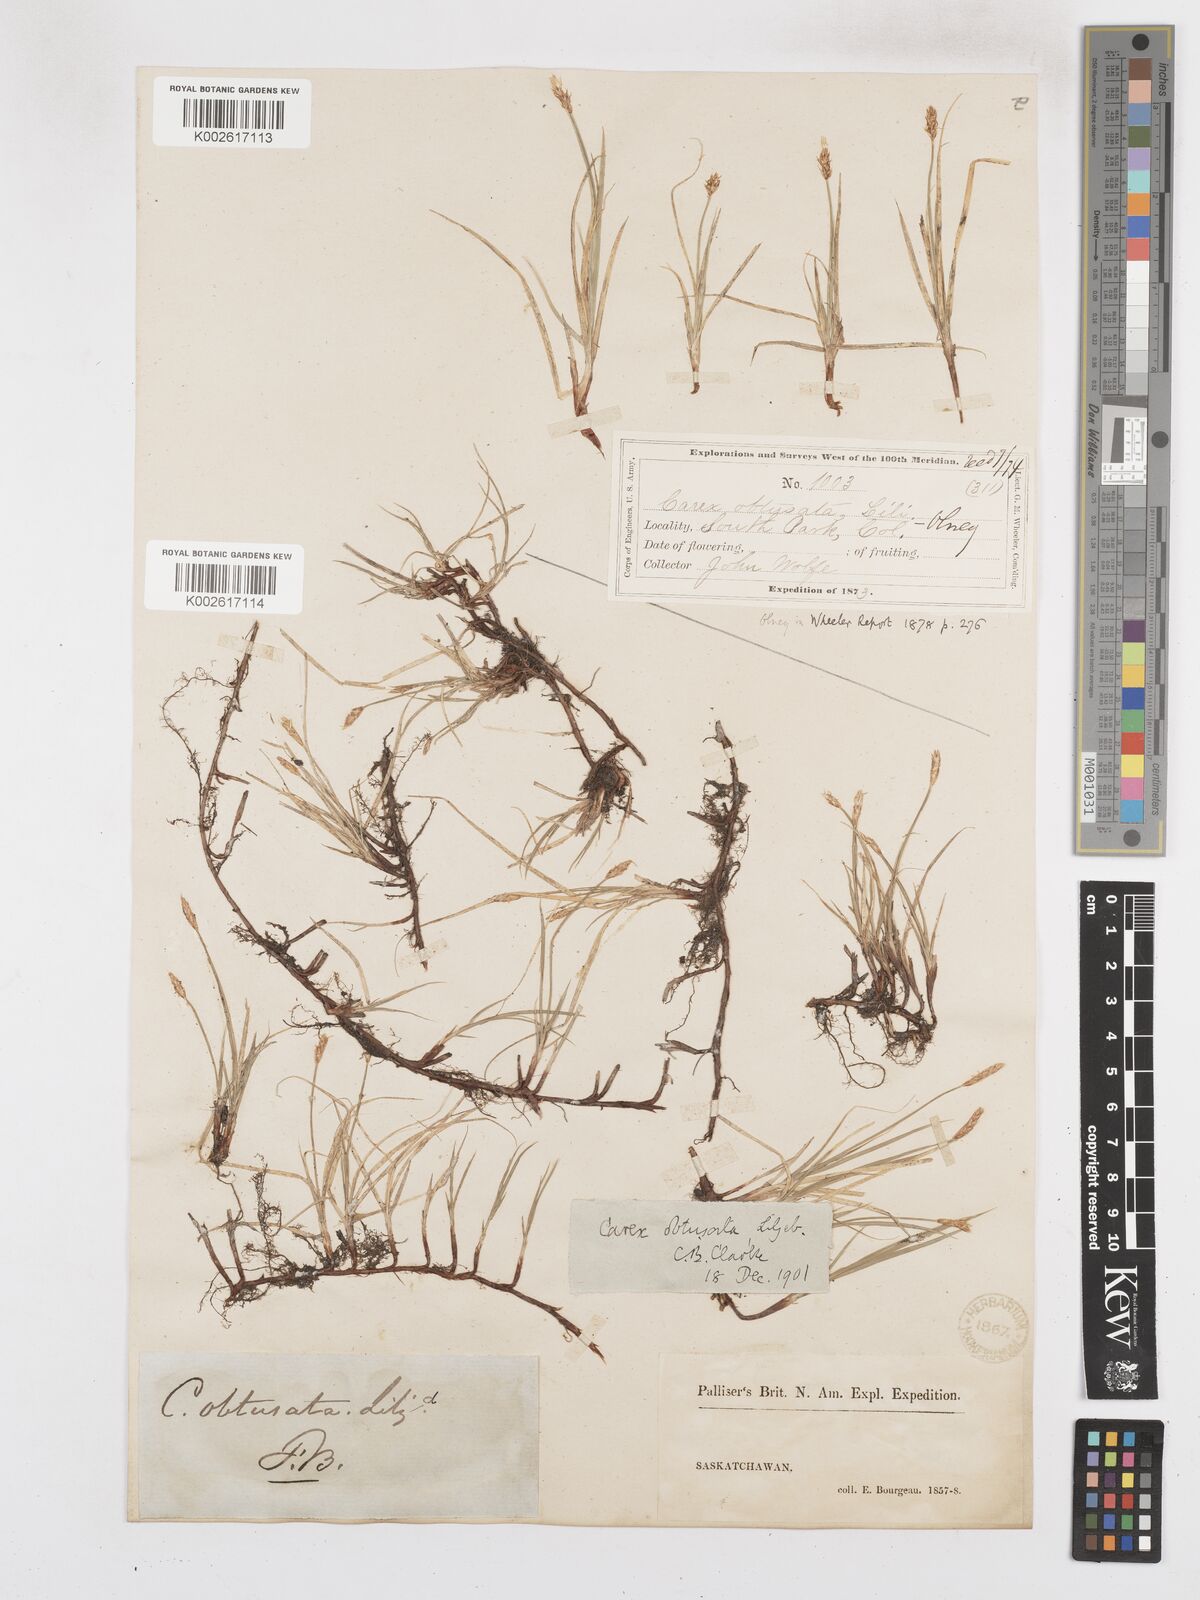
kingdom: Plantae
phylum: Tracheophyta
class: Liliopsida
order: Poales
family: Cyperaceae
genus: Carex
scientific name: Carex obtusata
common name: Blunt sedge
